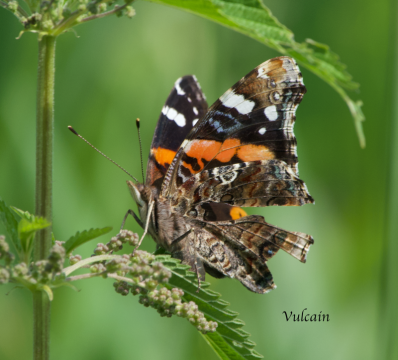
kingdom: Animalia
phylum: Arthropoda
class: Insecta
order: Lepidoptera
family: Nymphalidae
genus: Vanessa
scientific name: Vanessa atalanta
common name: Red Admiral
